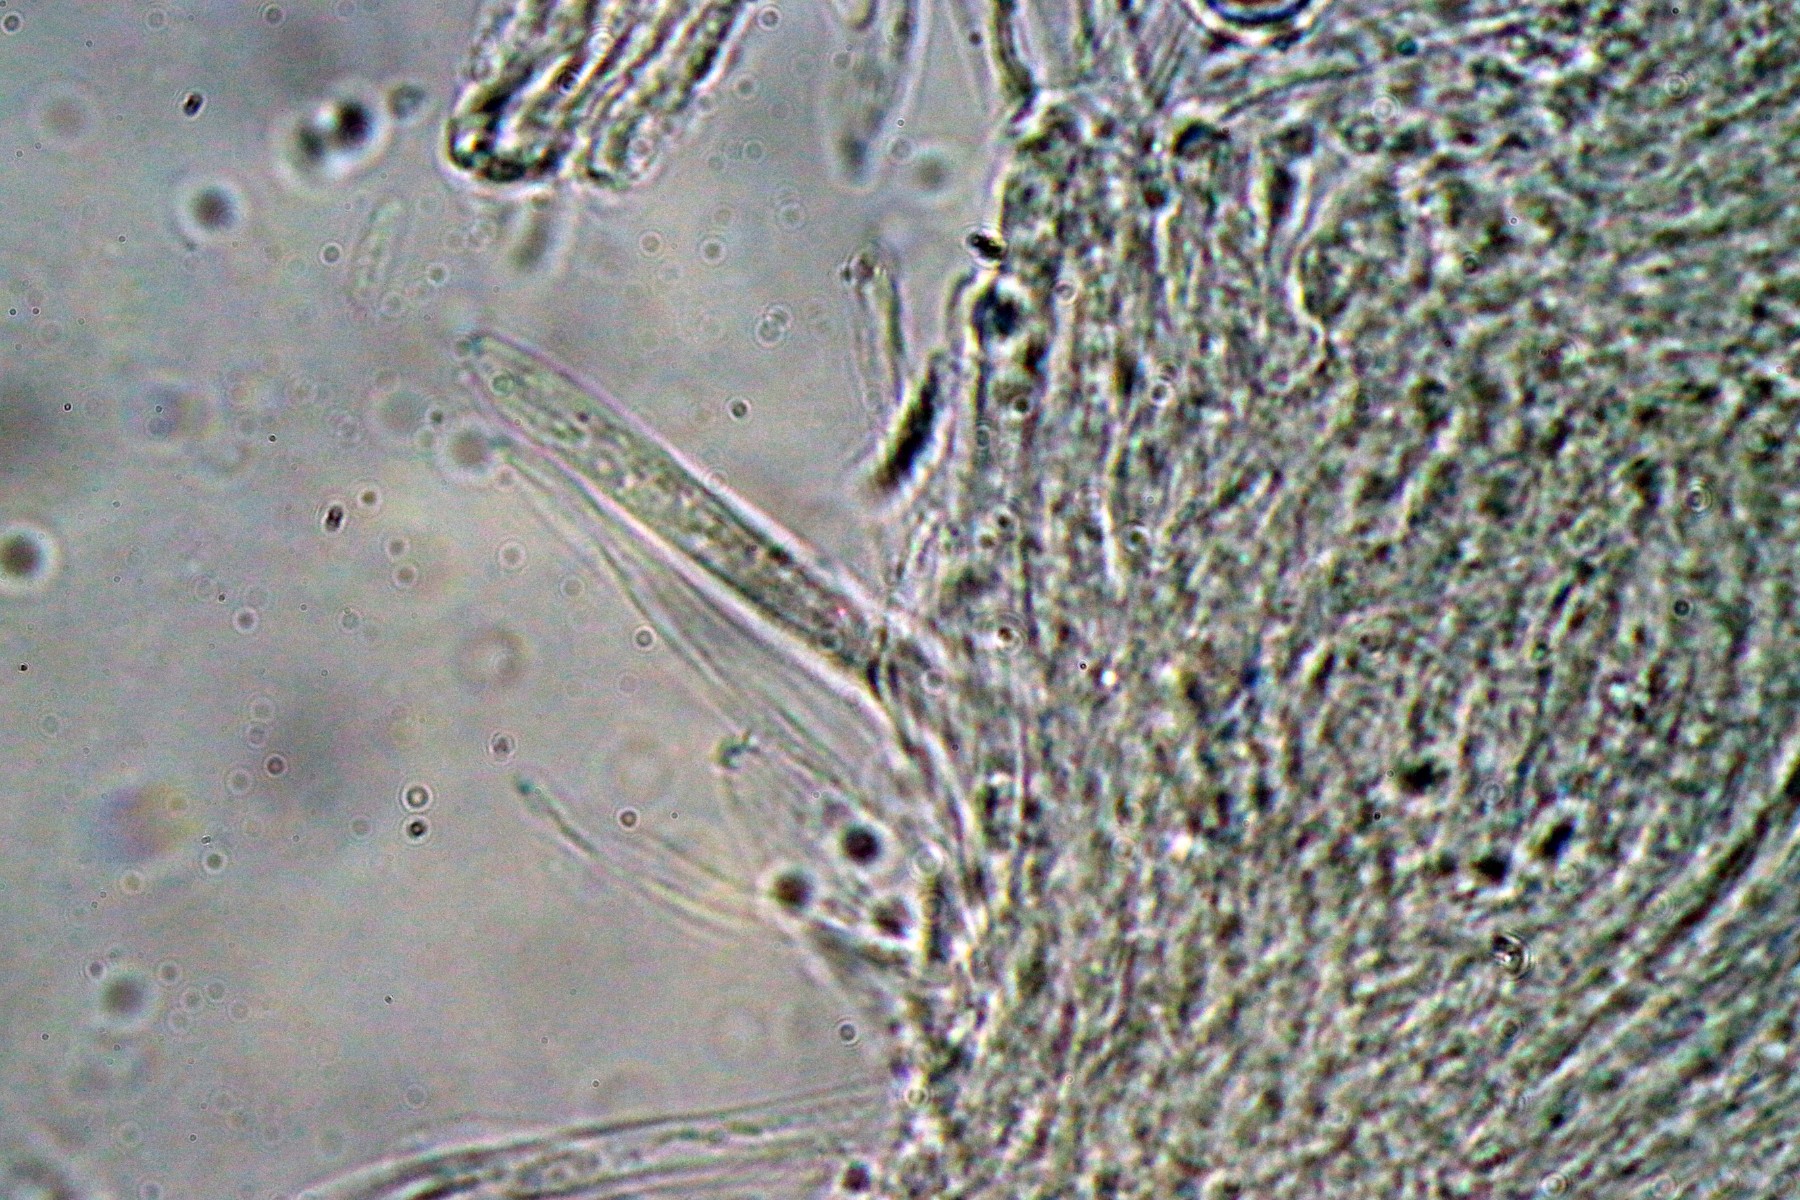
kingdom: Fungi
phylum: Ascomycota
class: Leotiomycetes
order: Helotiales
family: Ploettnerulaceae
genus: Pyrenopeziza
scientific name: Pyrenopeziza pastinacae
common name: stængel-kerneskive
